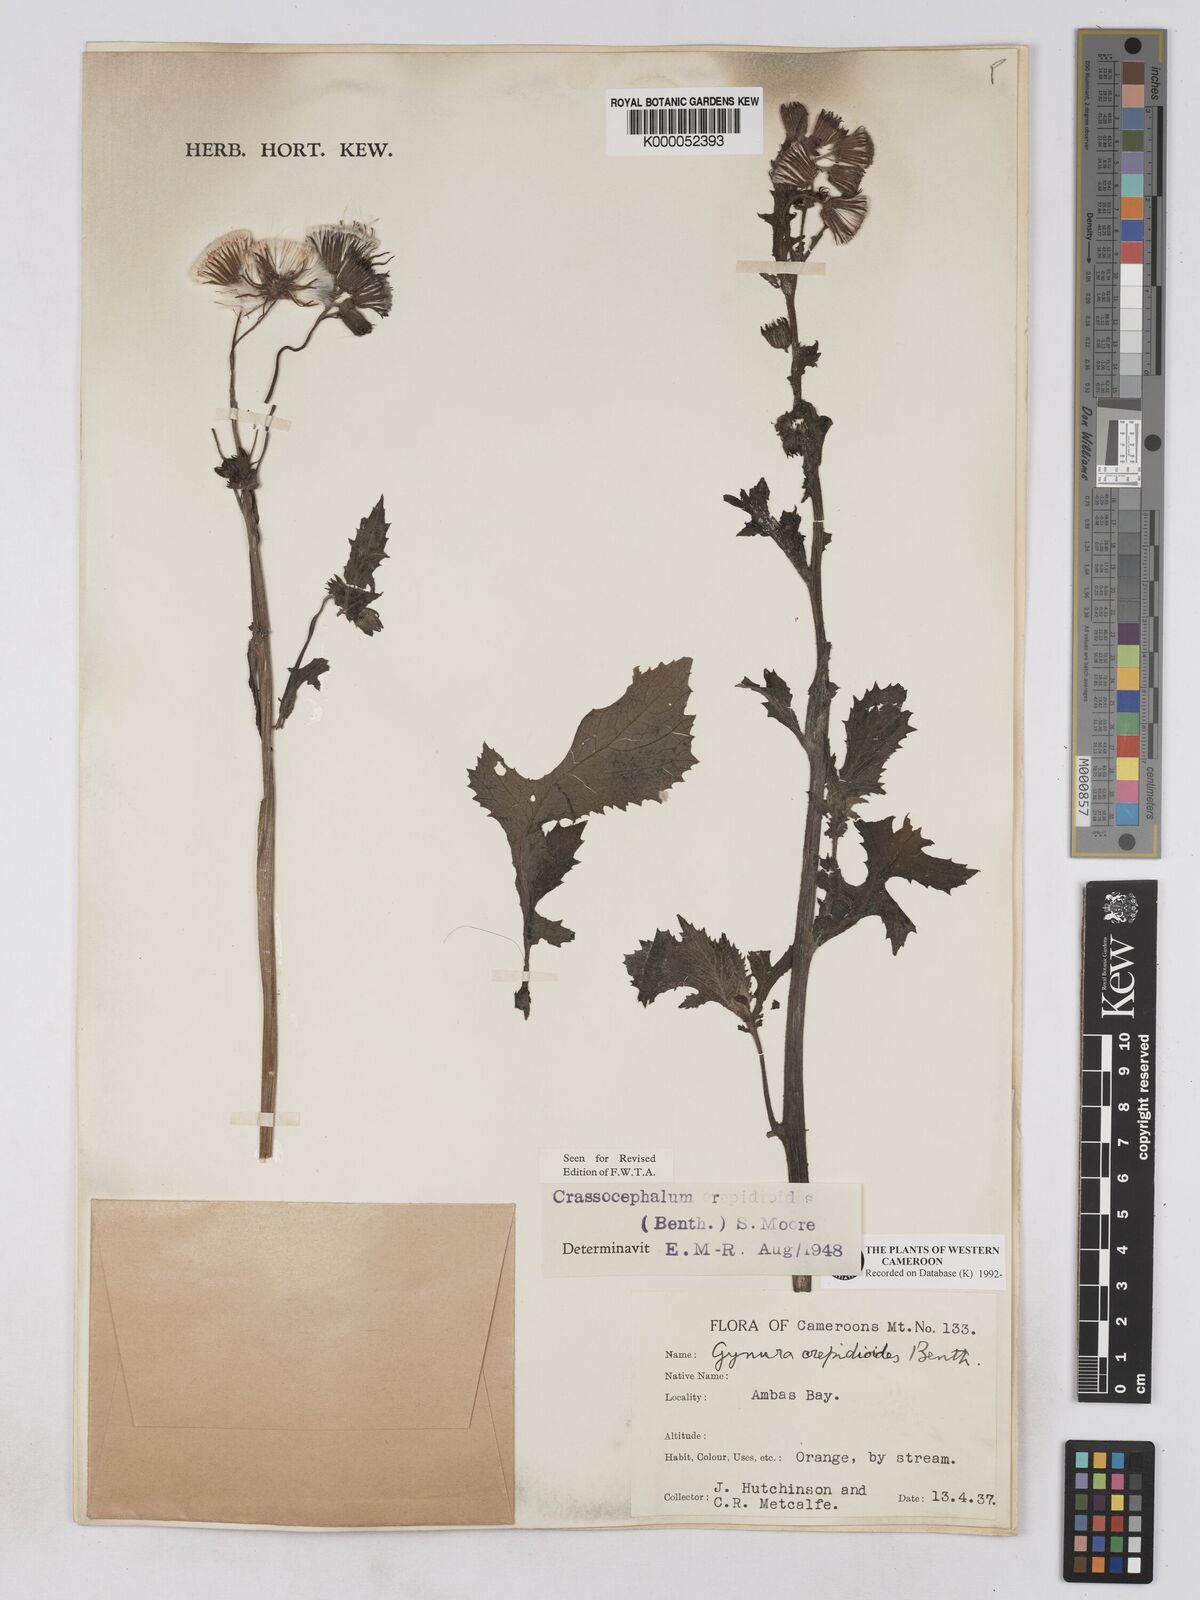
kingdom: Plantae
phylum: Tracheophyta
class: Magnoliopsida
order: Asterales
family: Asteraceae
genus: Crassocephalum
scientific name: Crassocephalum crepidioides
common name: Redflower ragleaf
